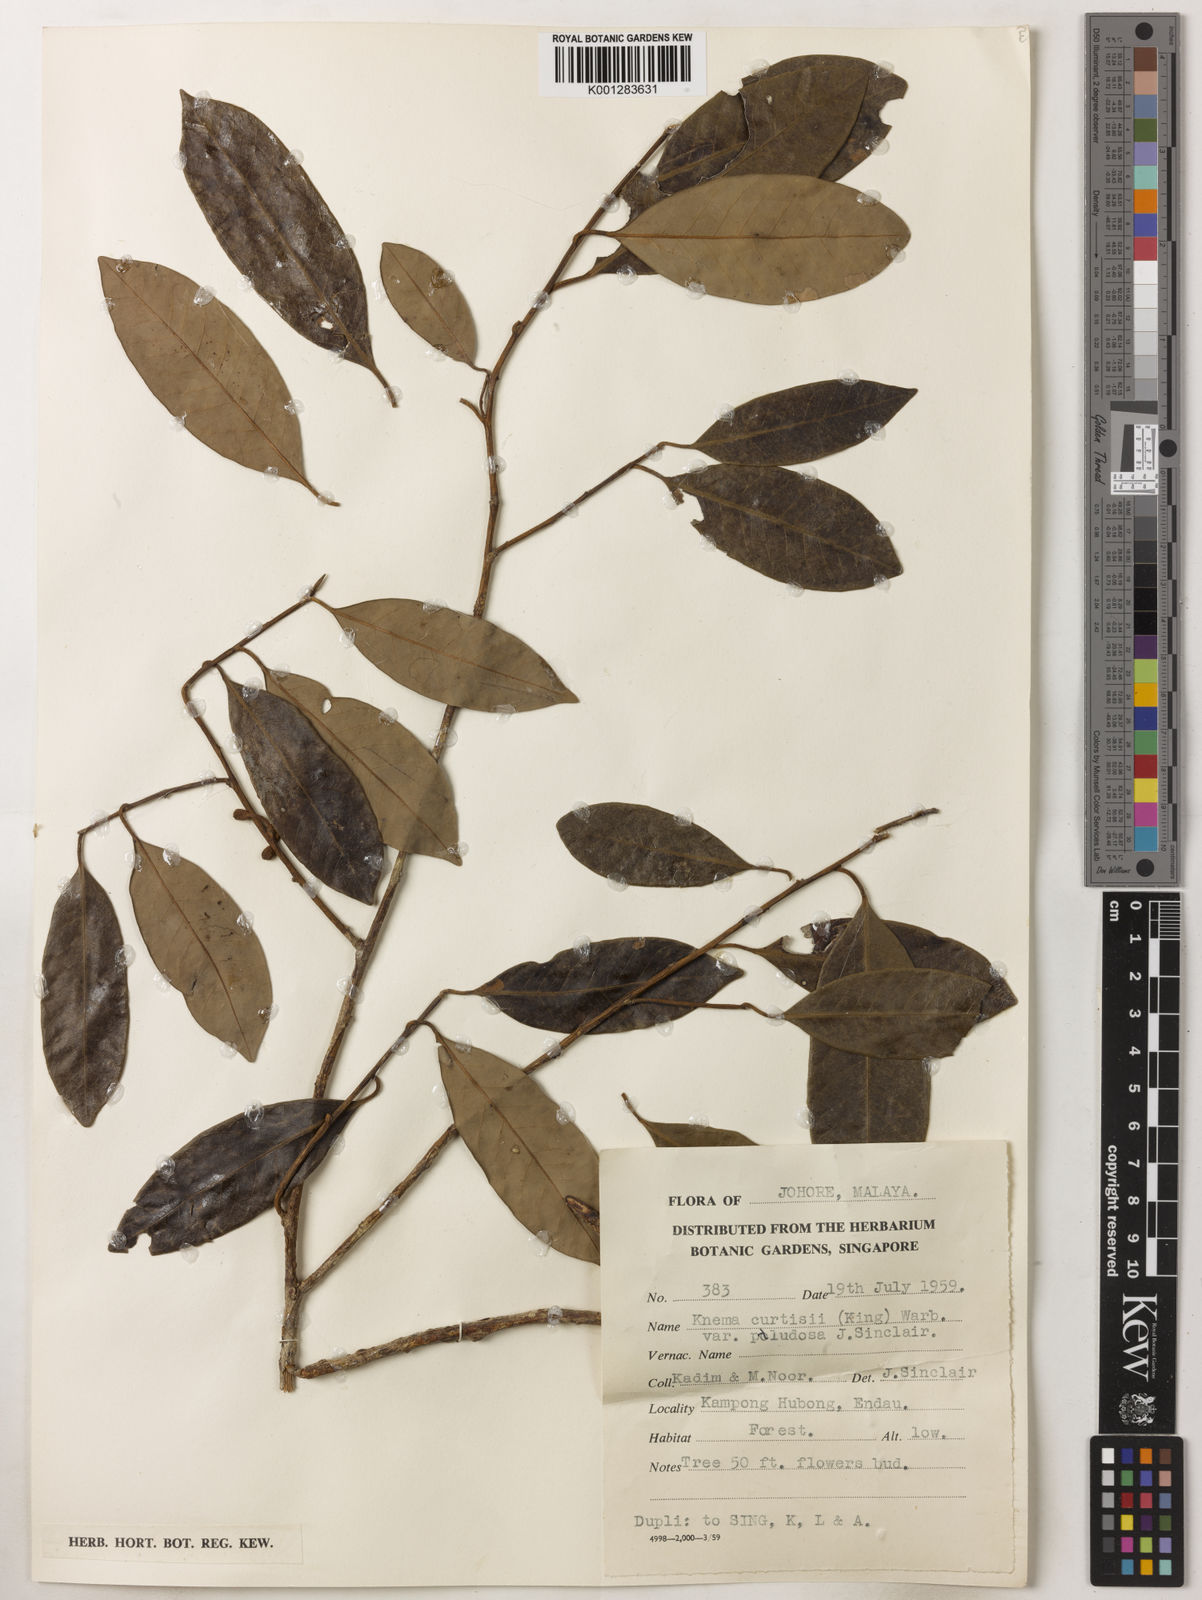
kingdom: Plantae
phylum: Tracheophyta
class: Magnoliopsida
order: Magnoliales
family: Myristicaceae
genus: Knema
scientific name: Knema
